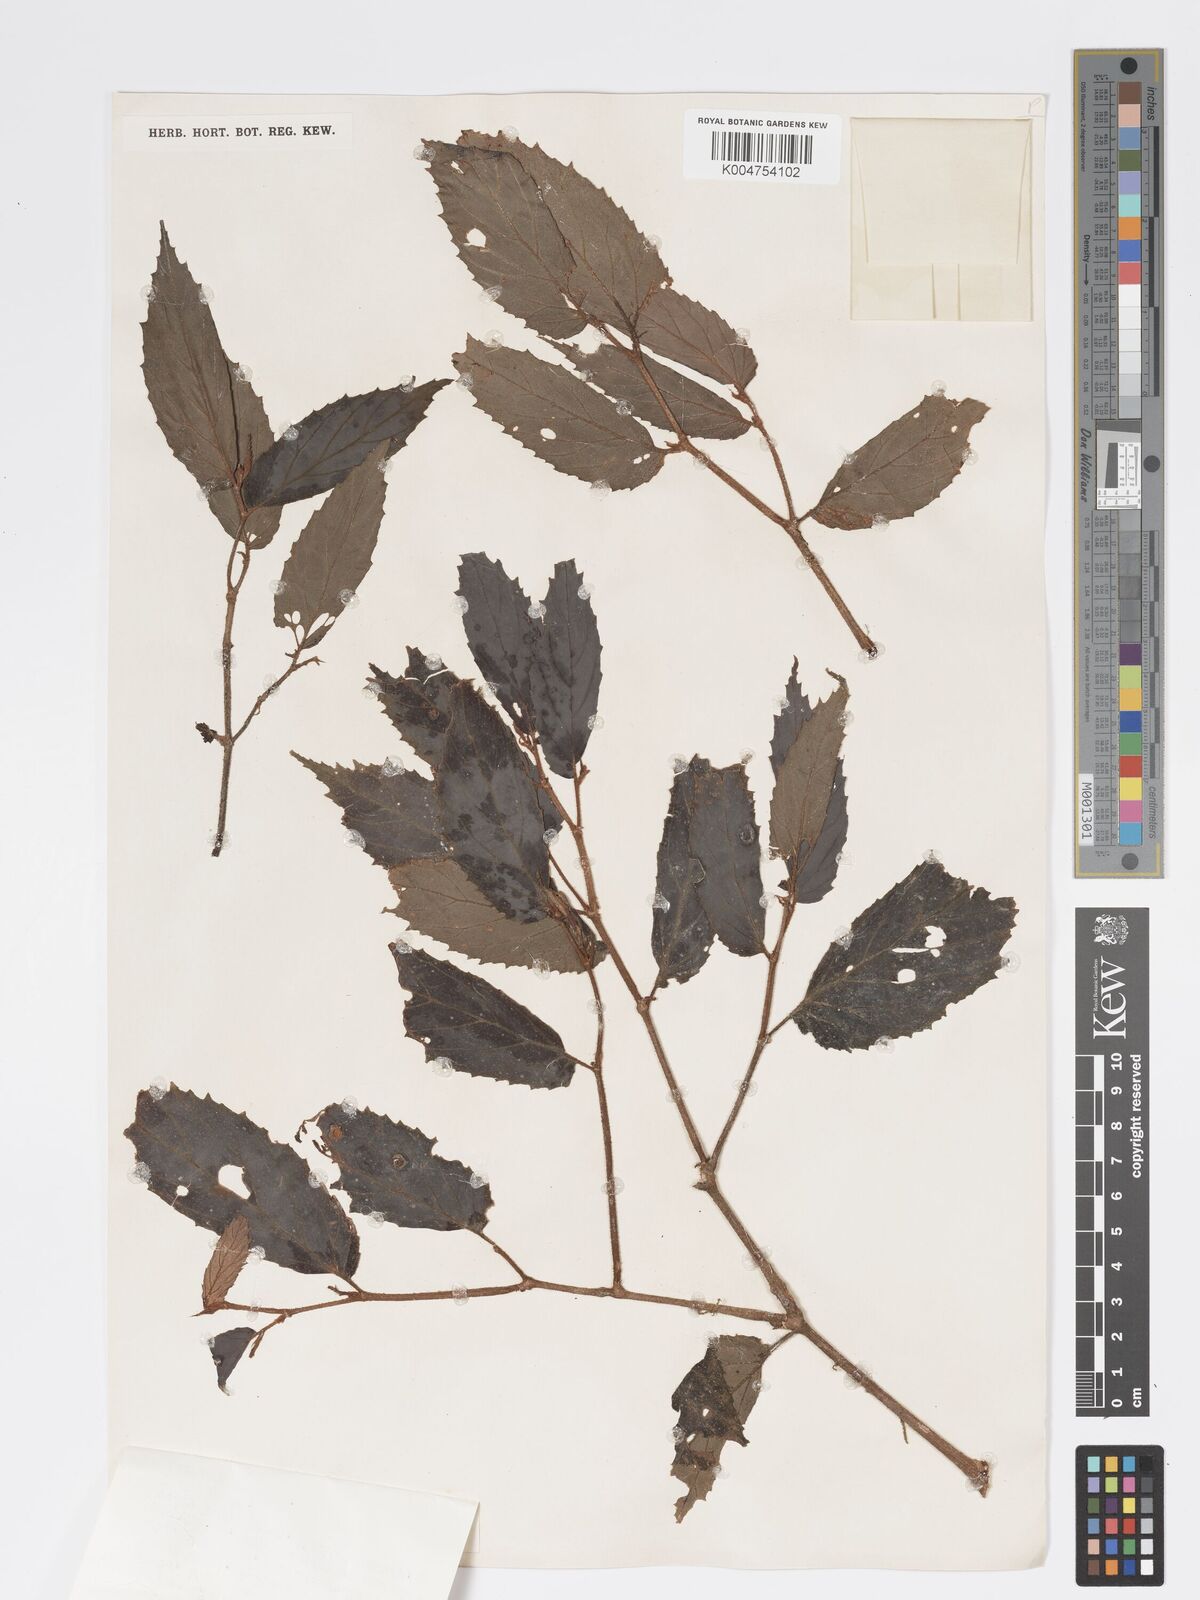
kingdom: Plantae
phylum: Tracheophyta
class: Magnoliopsida
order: Cucurbitales
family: Begoniaceae
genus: Begonia
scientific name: Begonia
